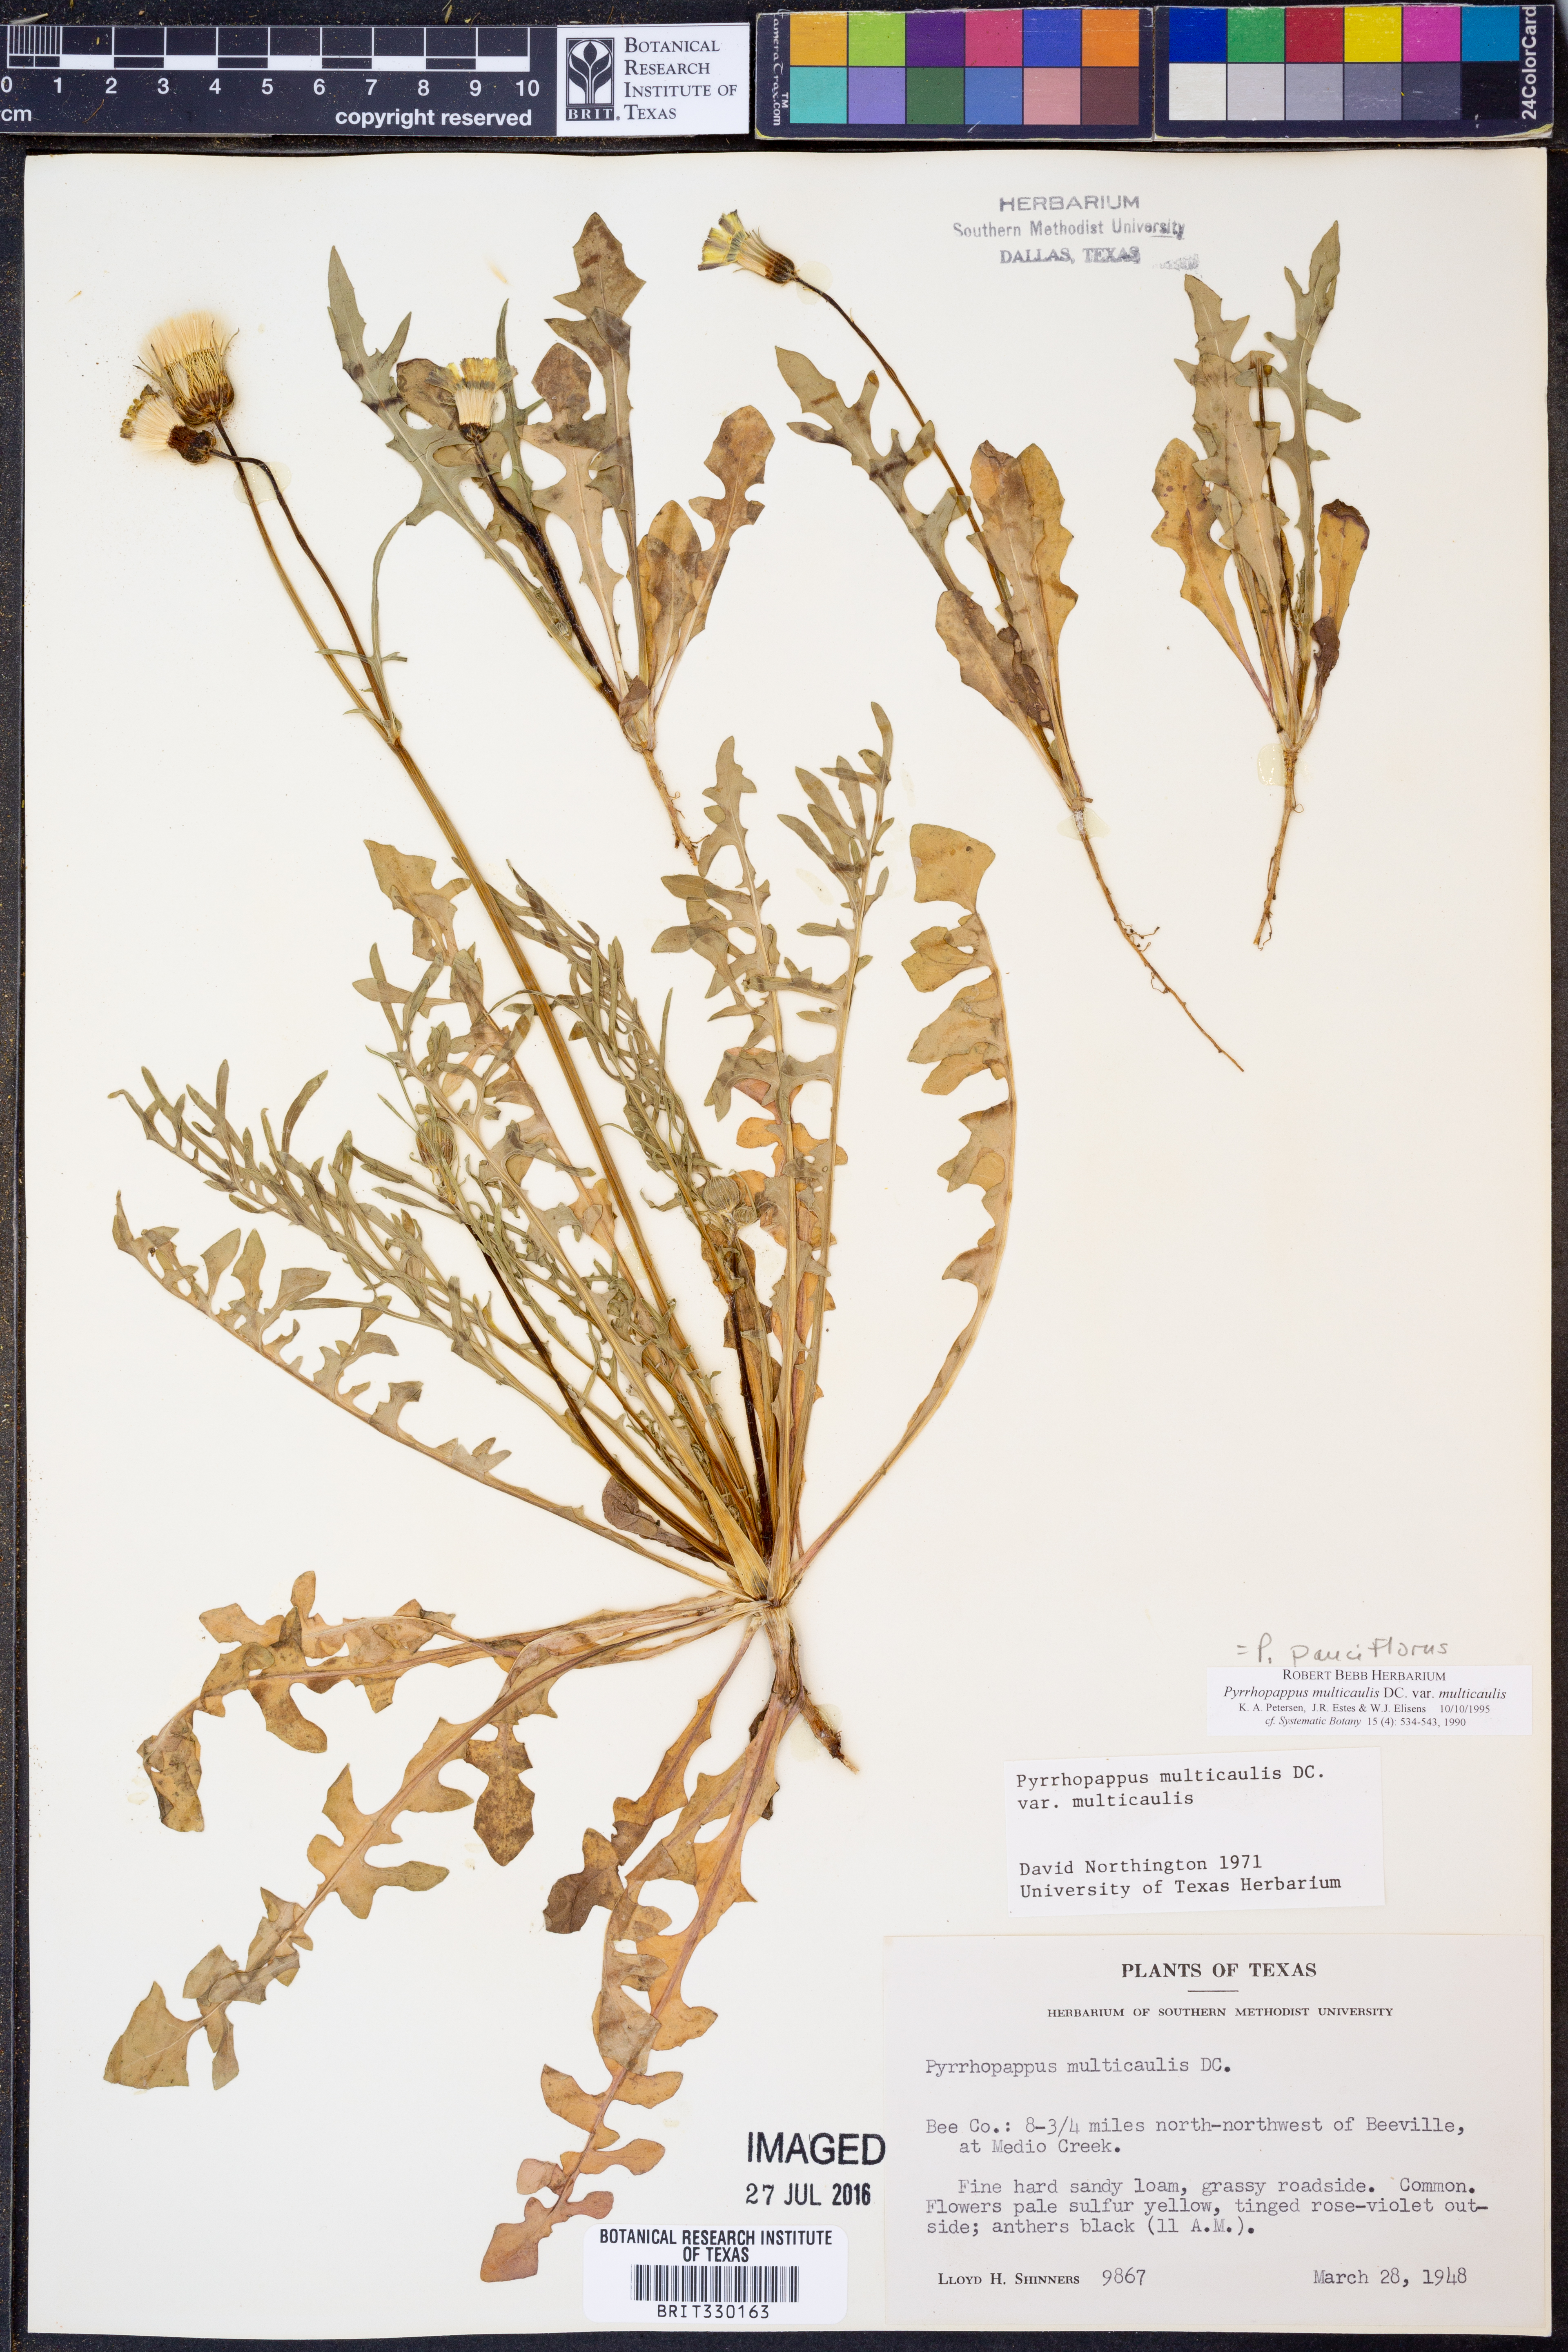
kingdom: Plantae
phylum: Tracheophyta
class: Magnoliopsida
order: Asterales
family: Asteraceae
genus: Pyrrhopappus
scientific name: Pyrrhopappus pauciflorus
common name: Texas false dandelion
